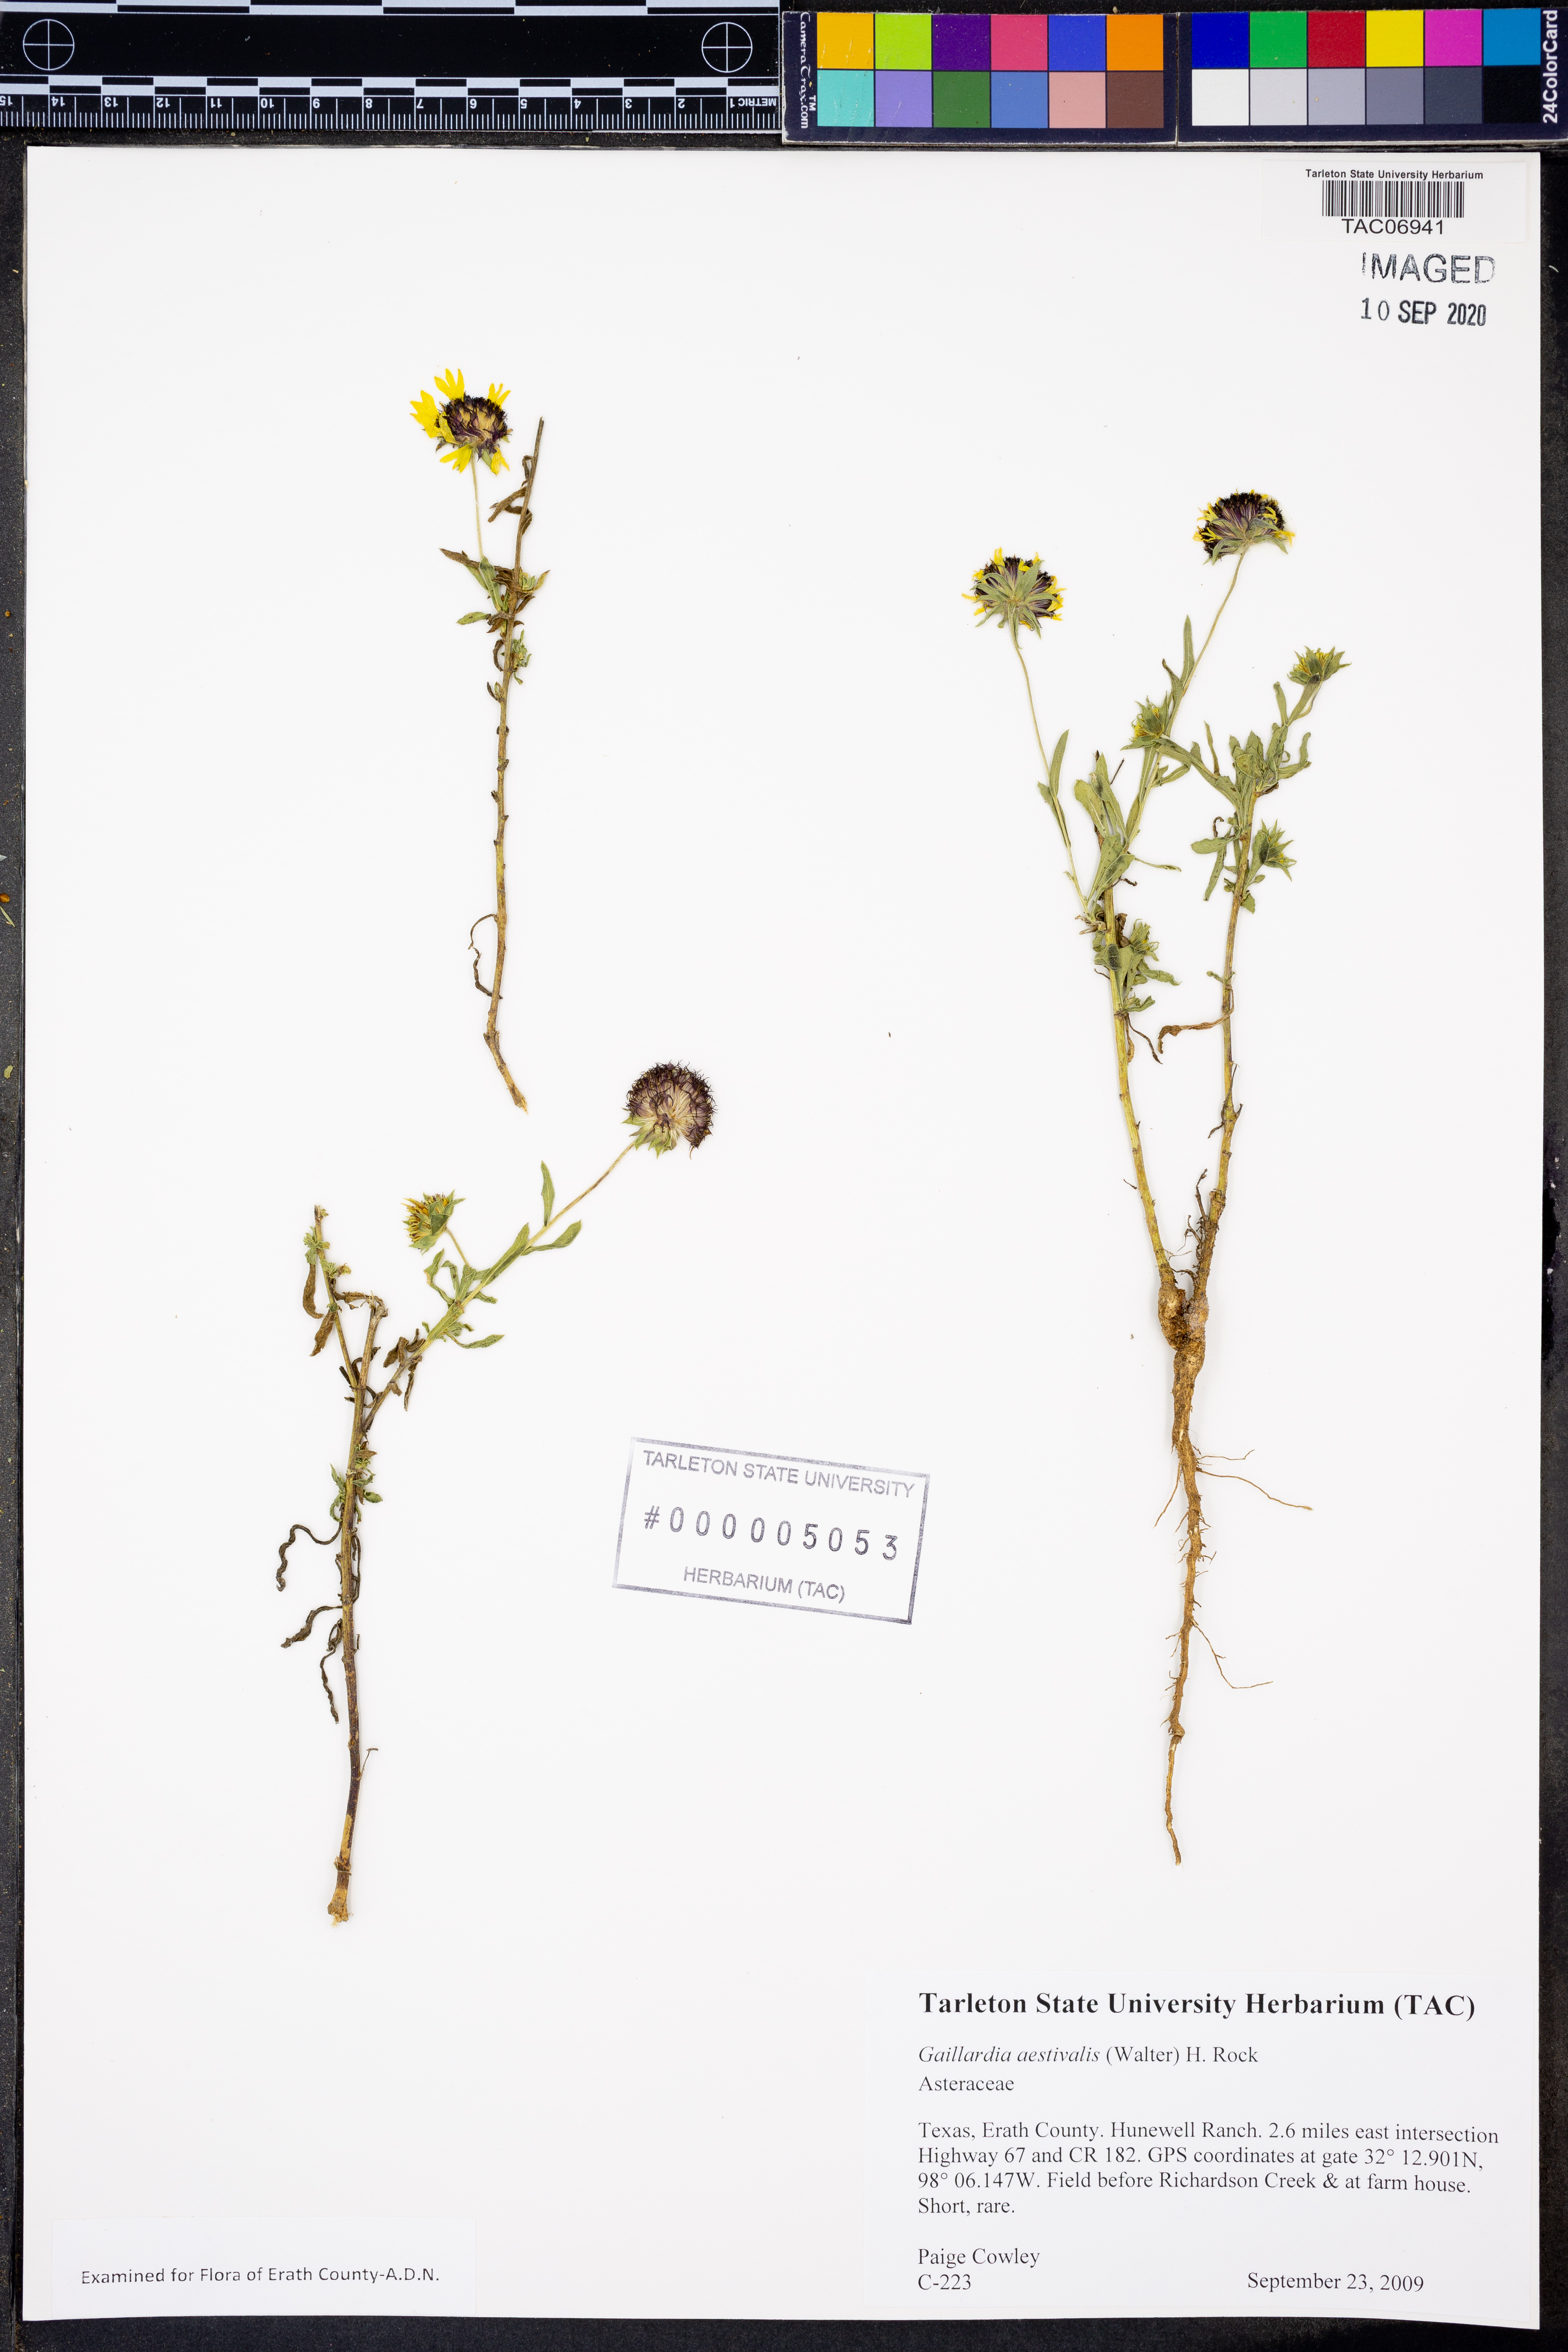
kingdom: Plantae
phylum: Tracheophyta
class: Magnoliopsida
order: Asterales
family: Asteraceae
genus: Gaillardia
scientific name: Gaillardia aestivalis
